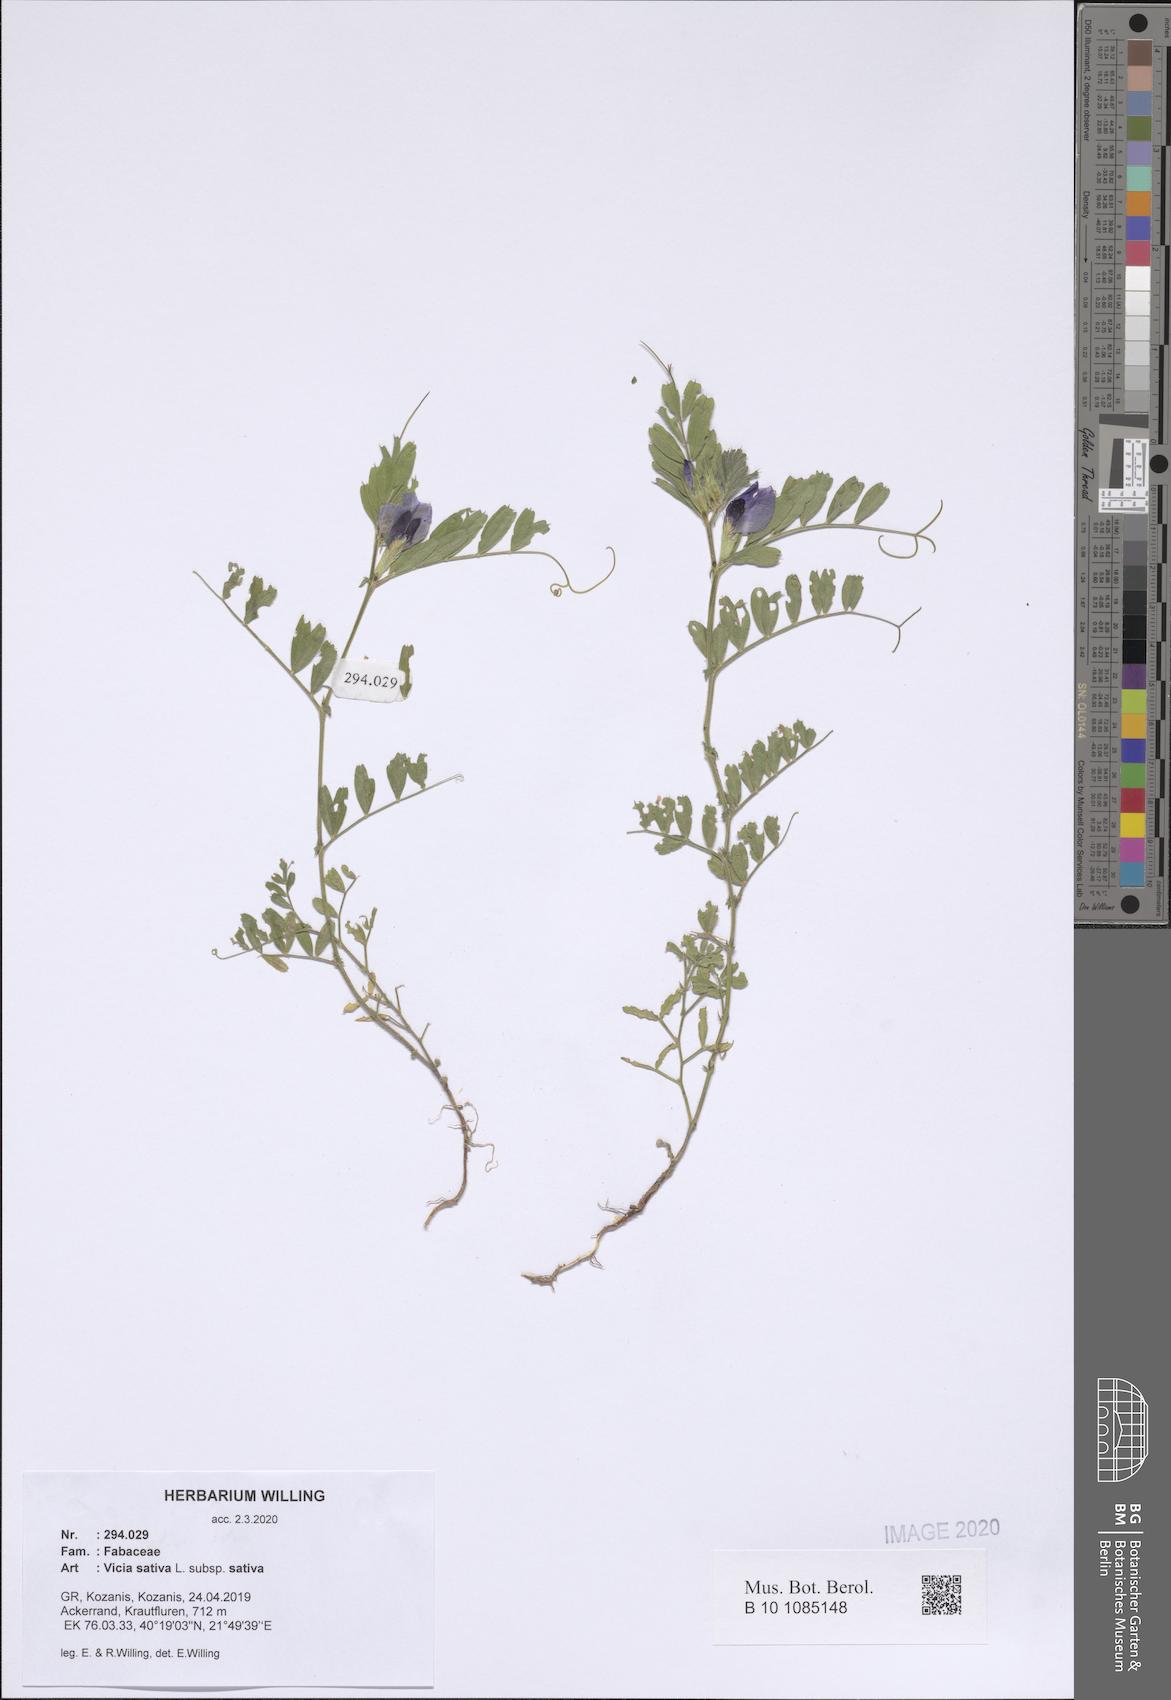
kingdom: Plantae
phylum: Tracheophyta
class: Magnoliopsida
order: Fabales
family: Fabaceae
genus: Vicia
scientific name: Vicia sativa
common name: Garden vetch
